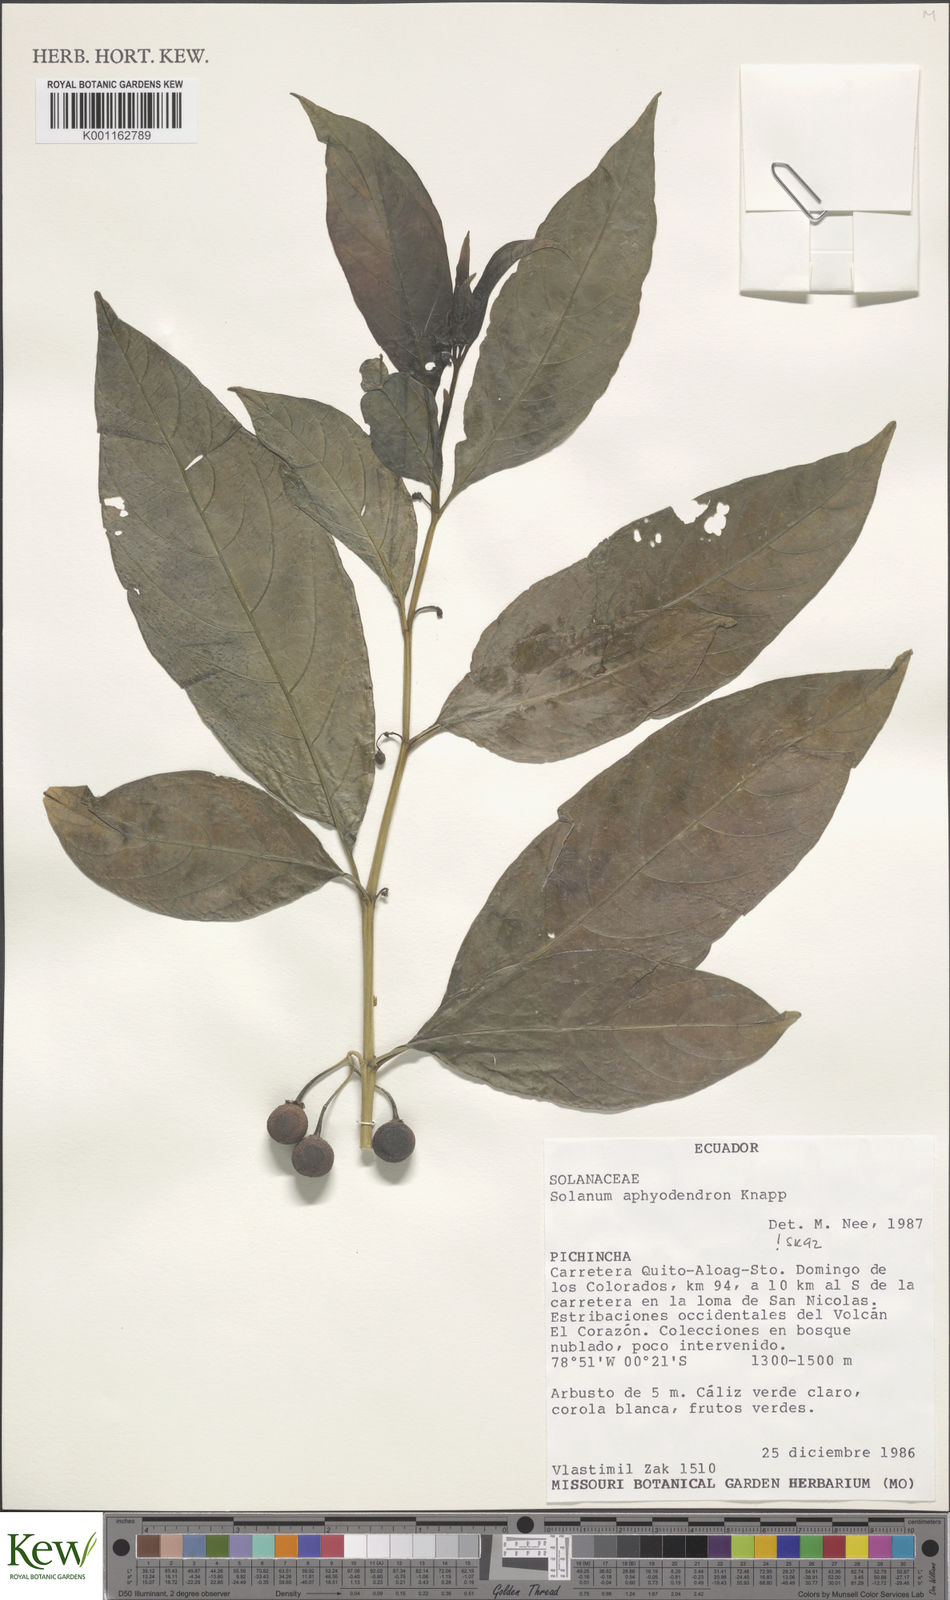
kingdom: Plantae
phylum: Tracheophyta
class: Magnoliopsida
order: Solanales
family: Solanaceae
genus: Solanum
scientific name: Solanum aphyodendron
